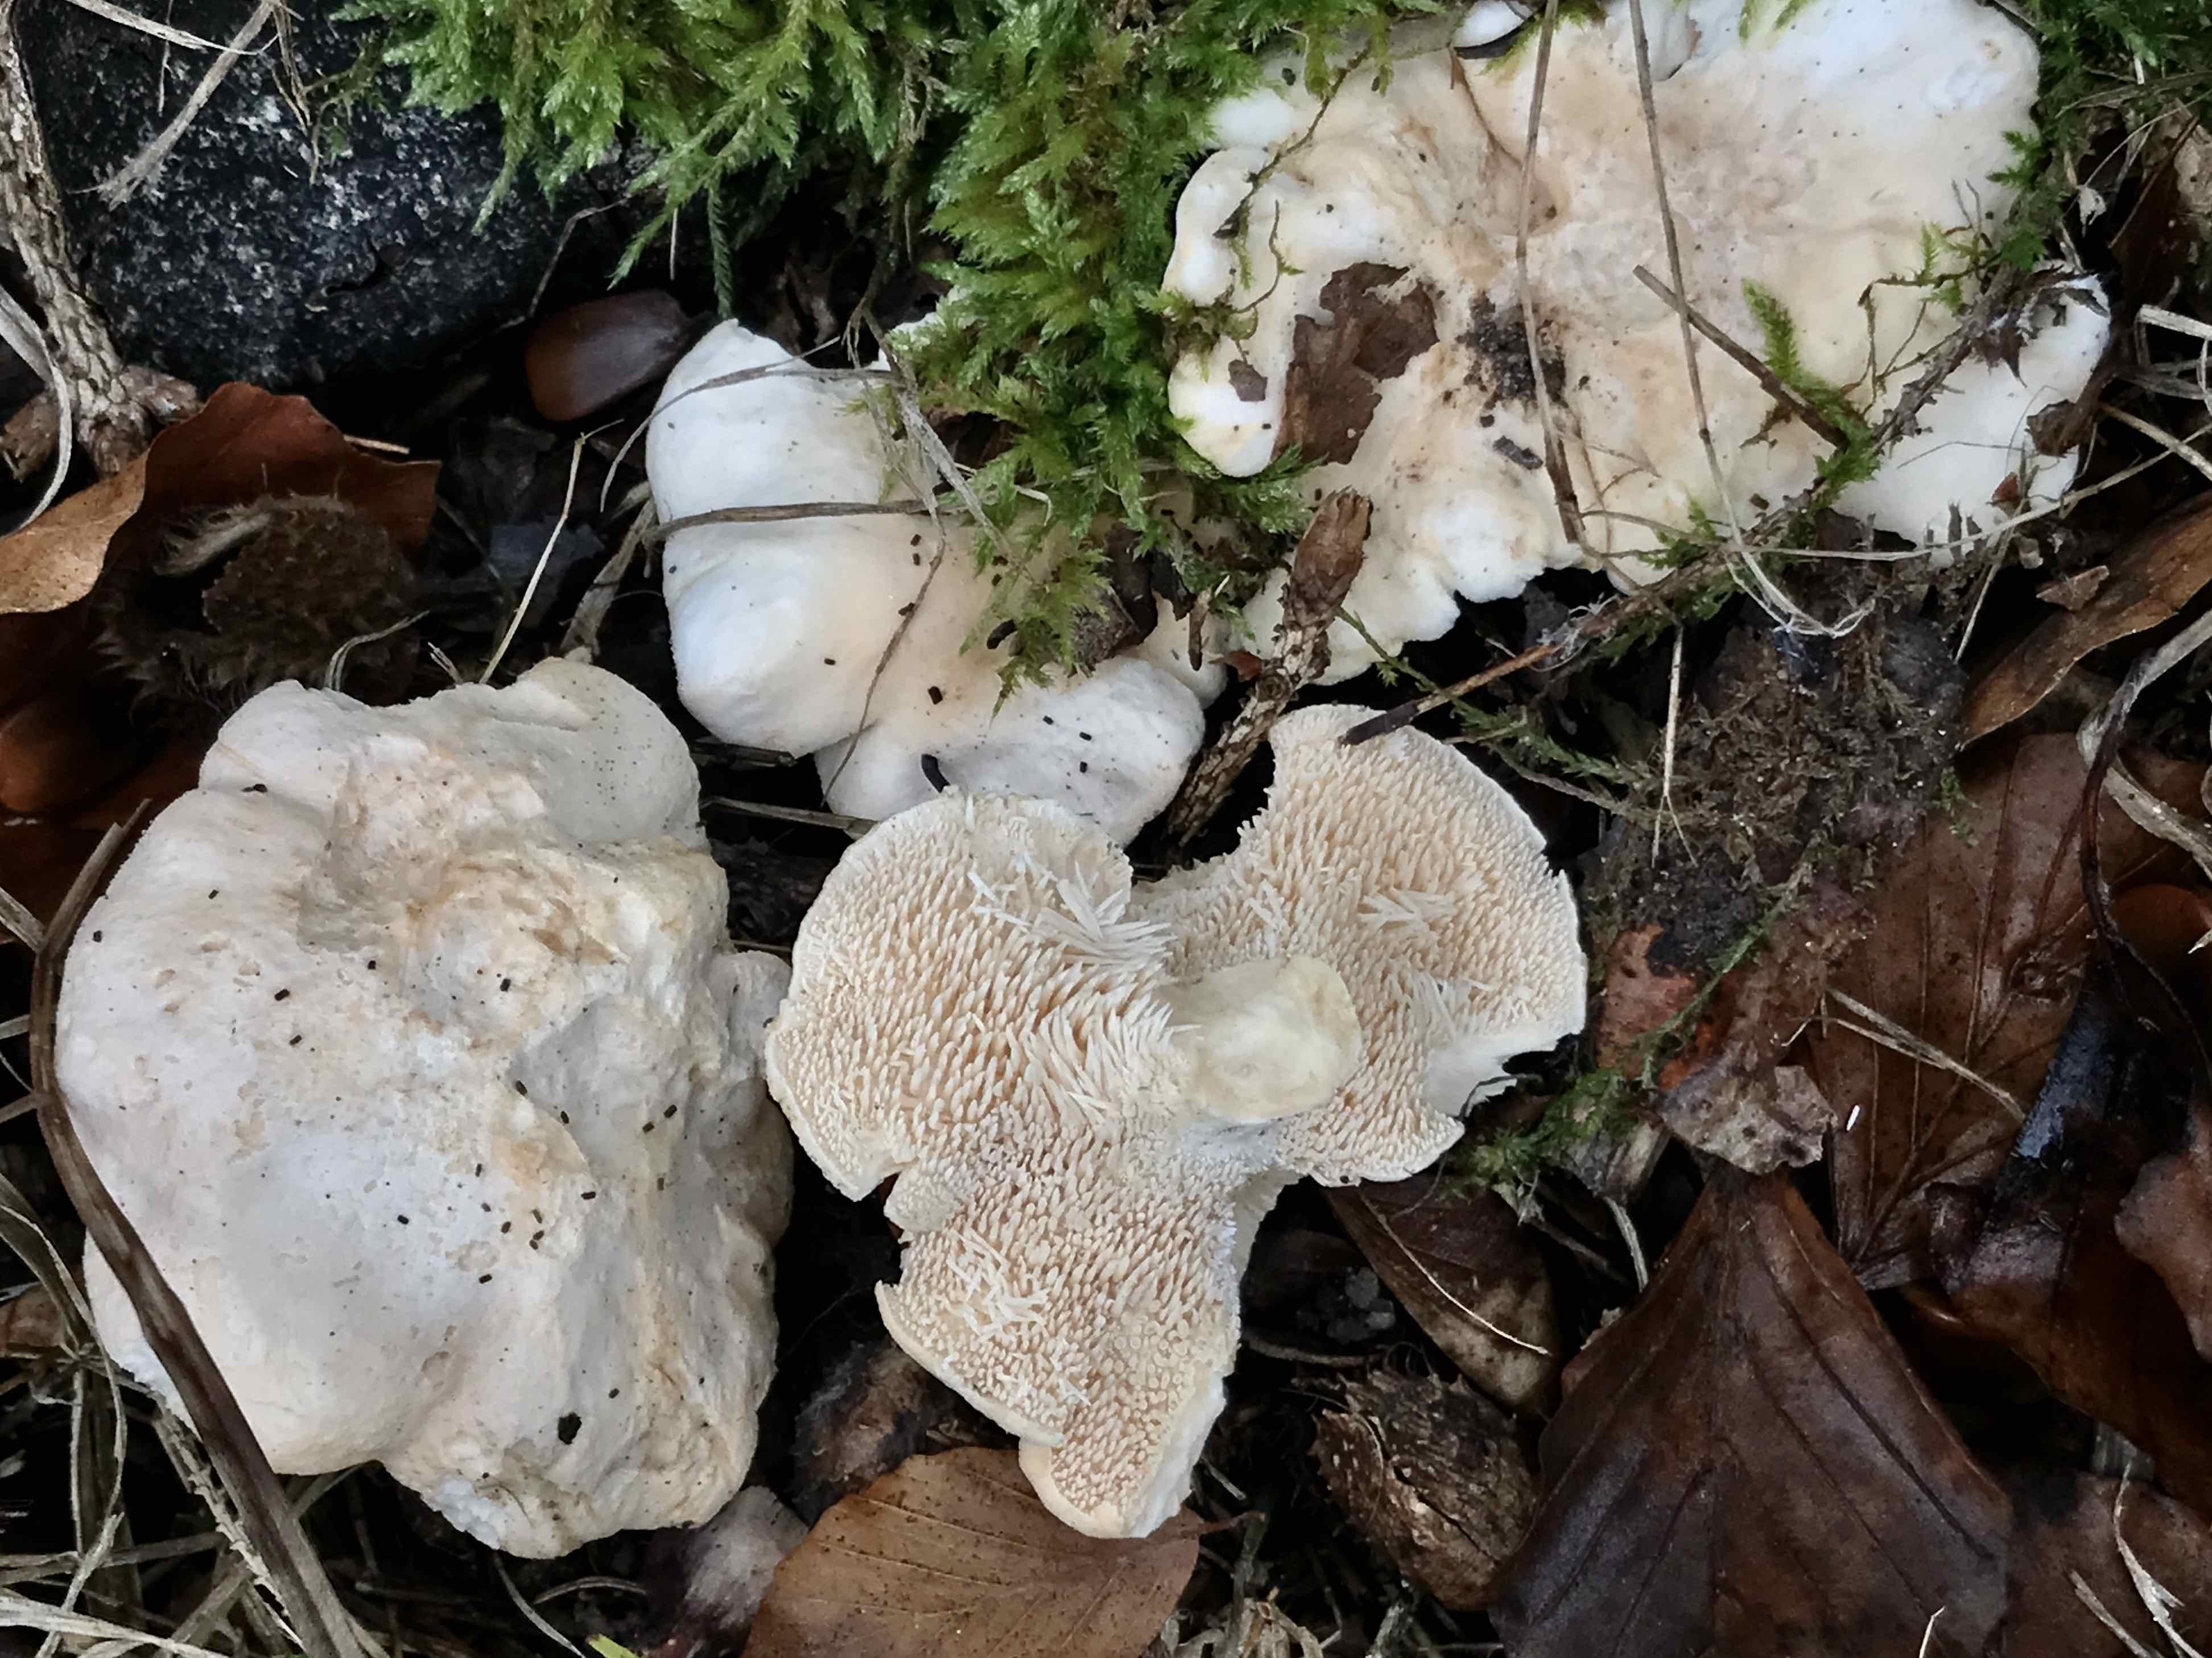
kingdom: Fungi
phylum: Basidiomycota
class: Agaricomycetes
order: Cantharellales
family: Hydnaceae
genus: Hydnum
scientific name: Hydnum repandum
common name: almindelig pigsvamp
